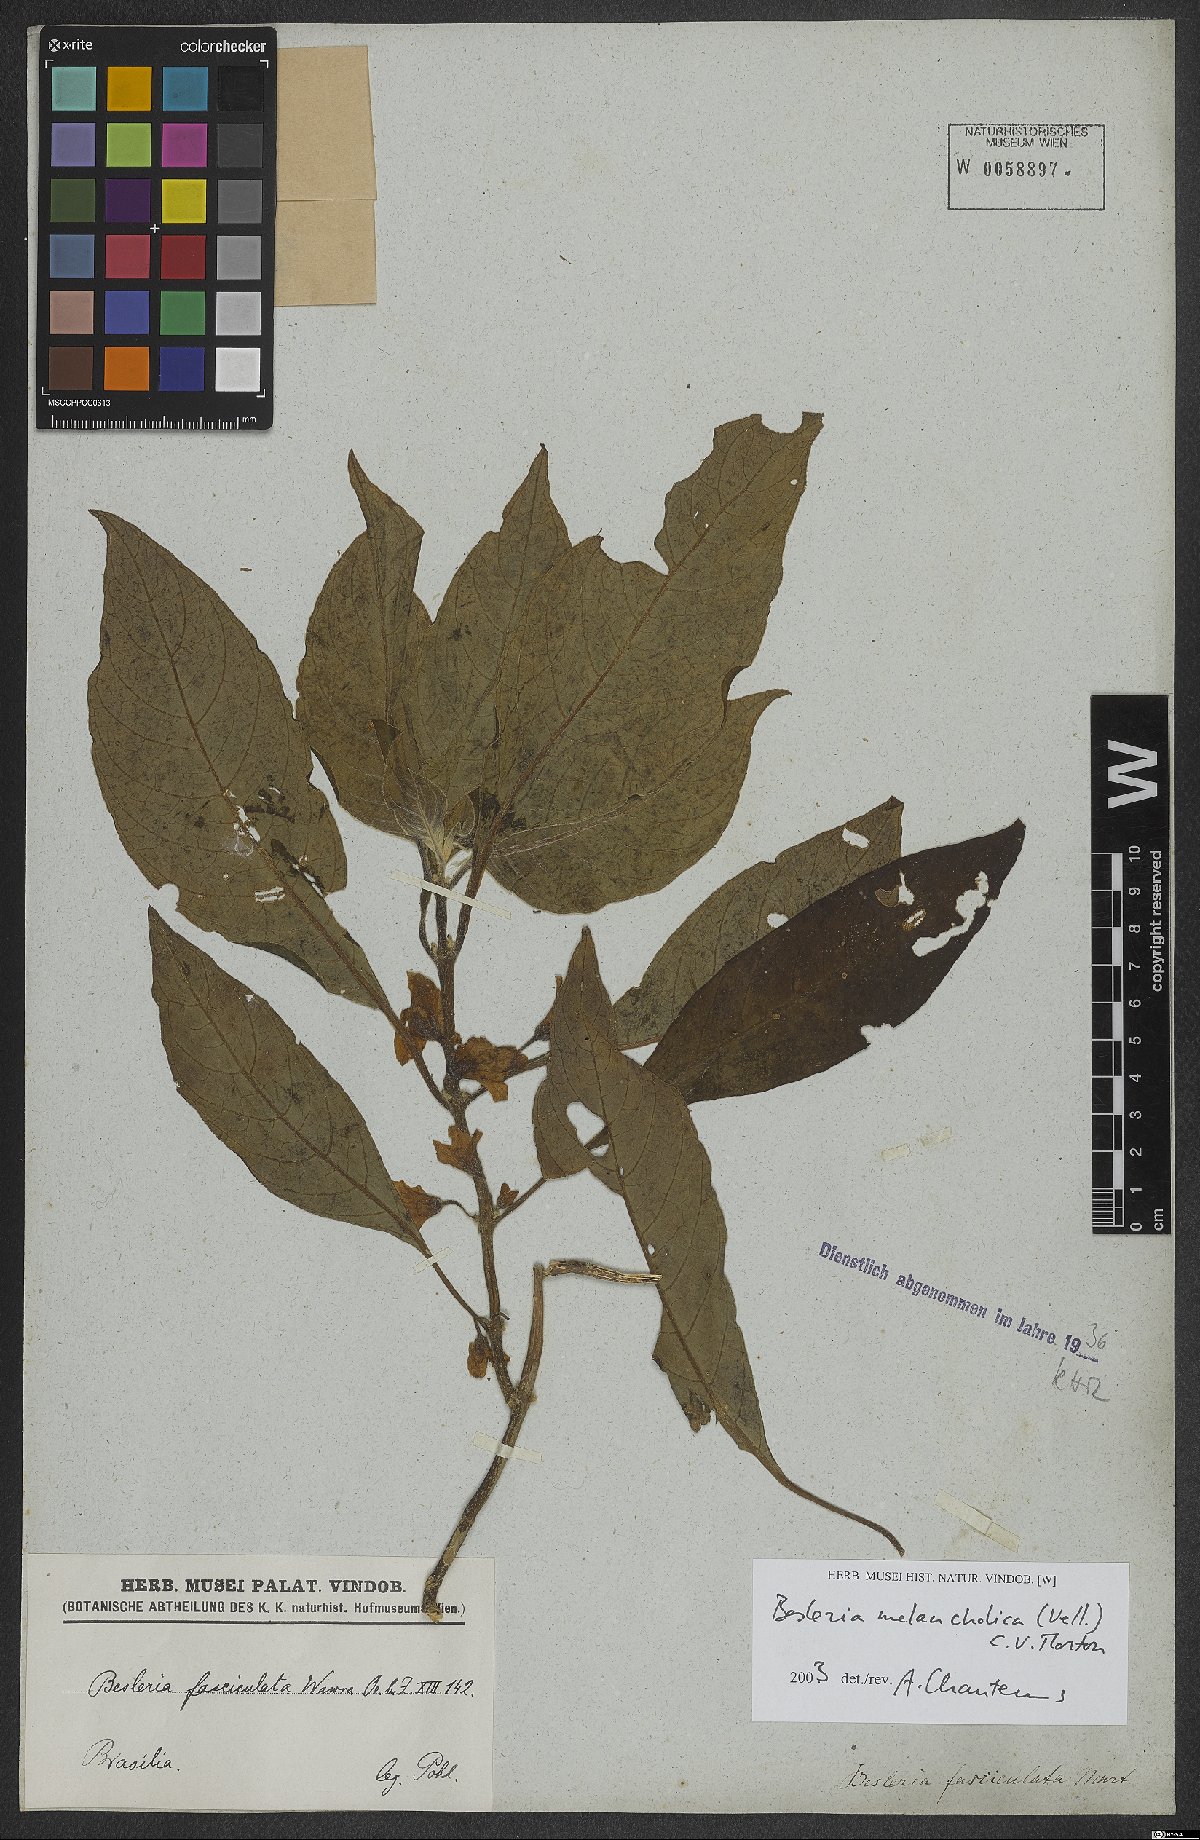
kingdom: Plantae
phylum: Tracheophyta
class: Magnoliopsida
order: Lamiales
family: Gesneriaceae
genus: Besleria
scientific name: Besleria melancholica
